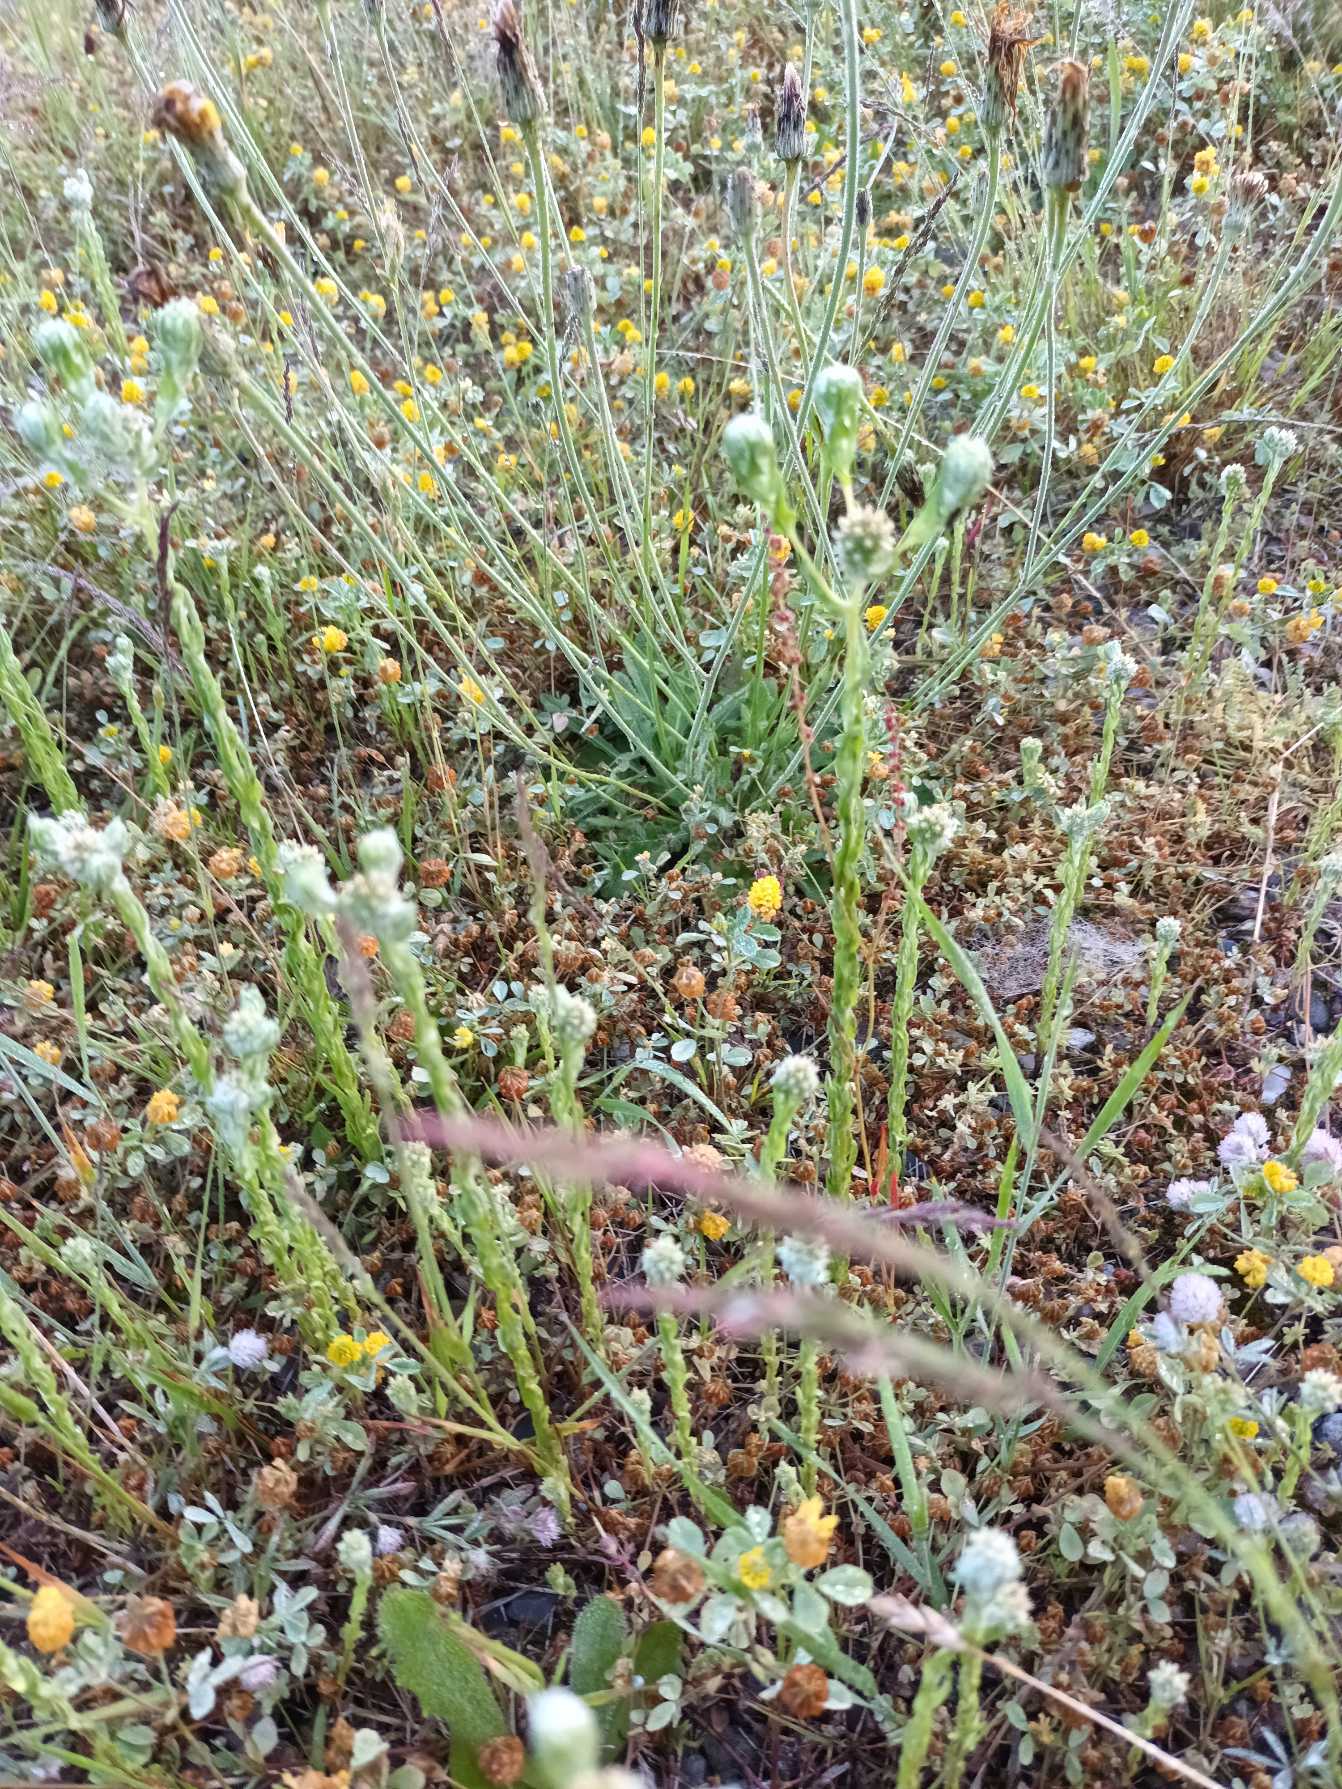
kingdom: Plantae
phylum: Tracheophyta
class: Magnoliopsida
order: Asterales
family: Asteraceae
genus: Filago
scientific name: Filago germanica
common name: Kugle-museurt
